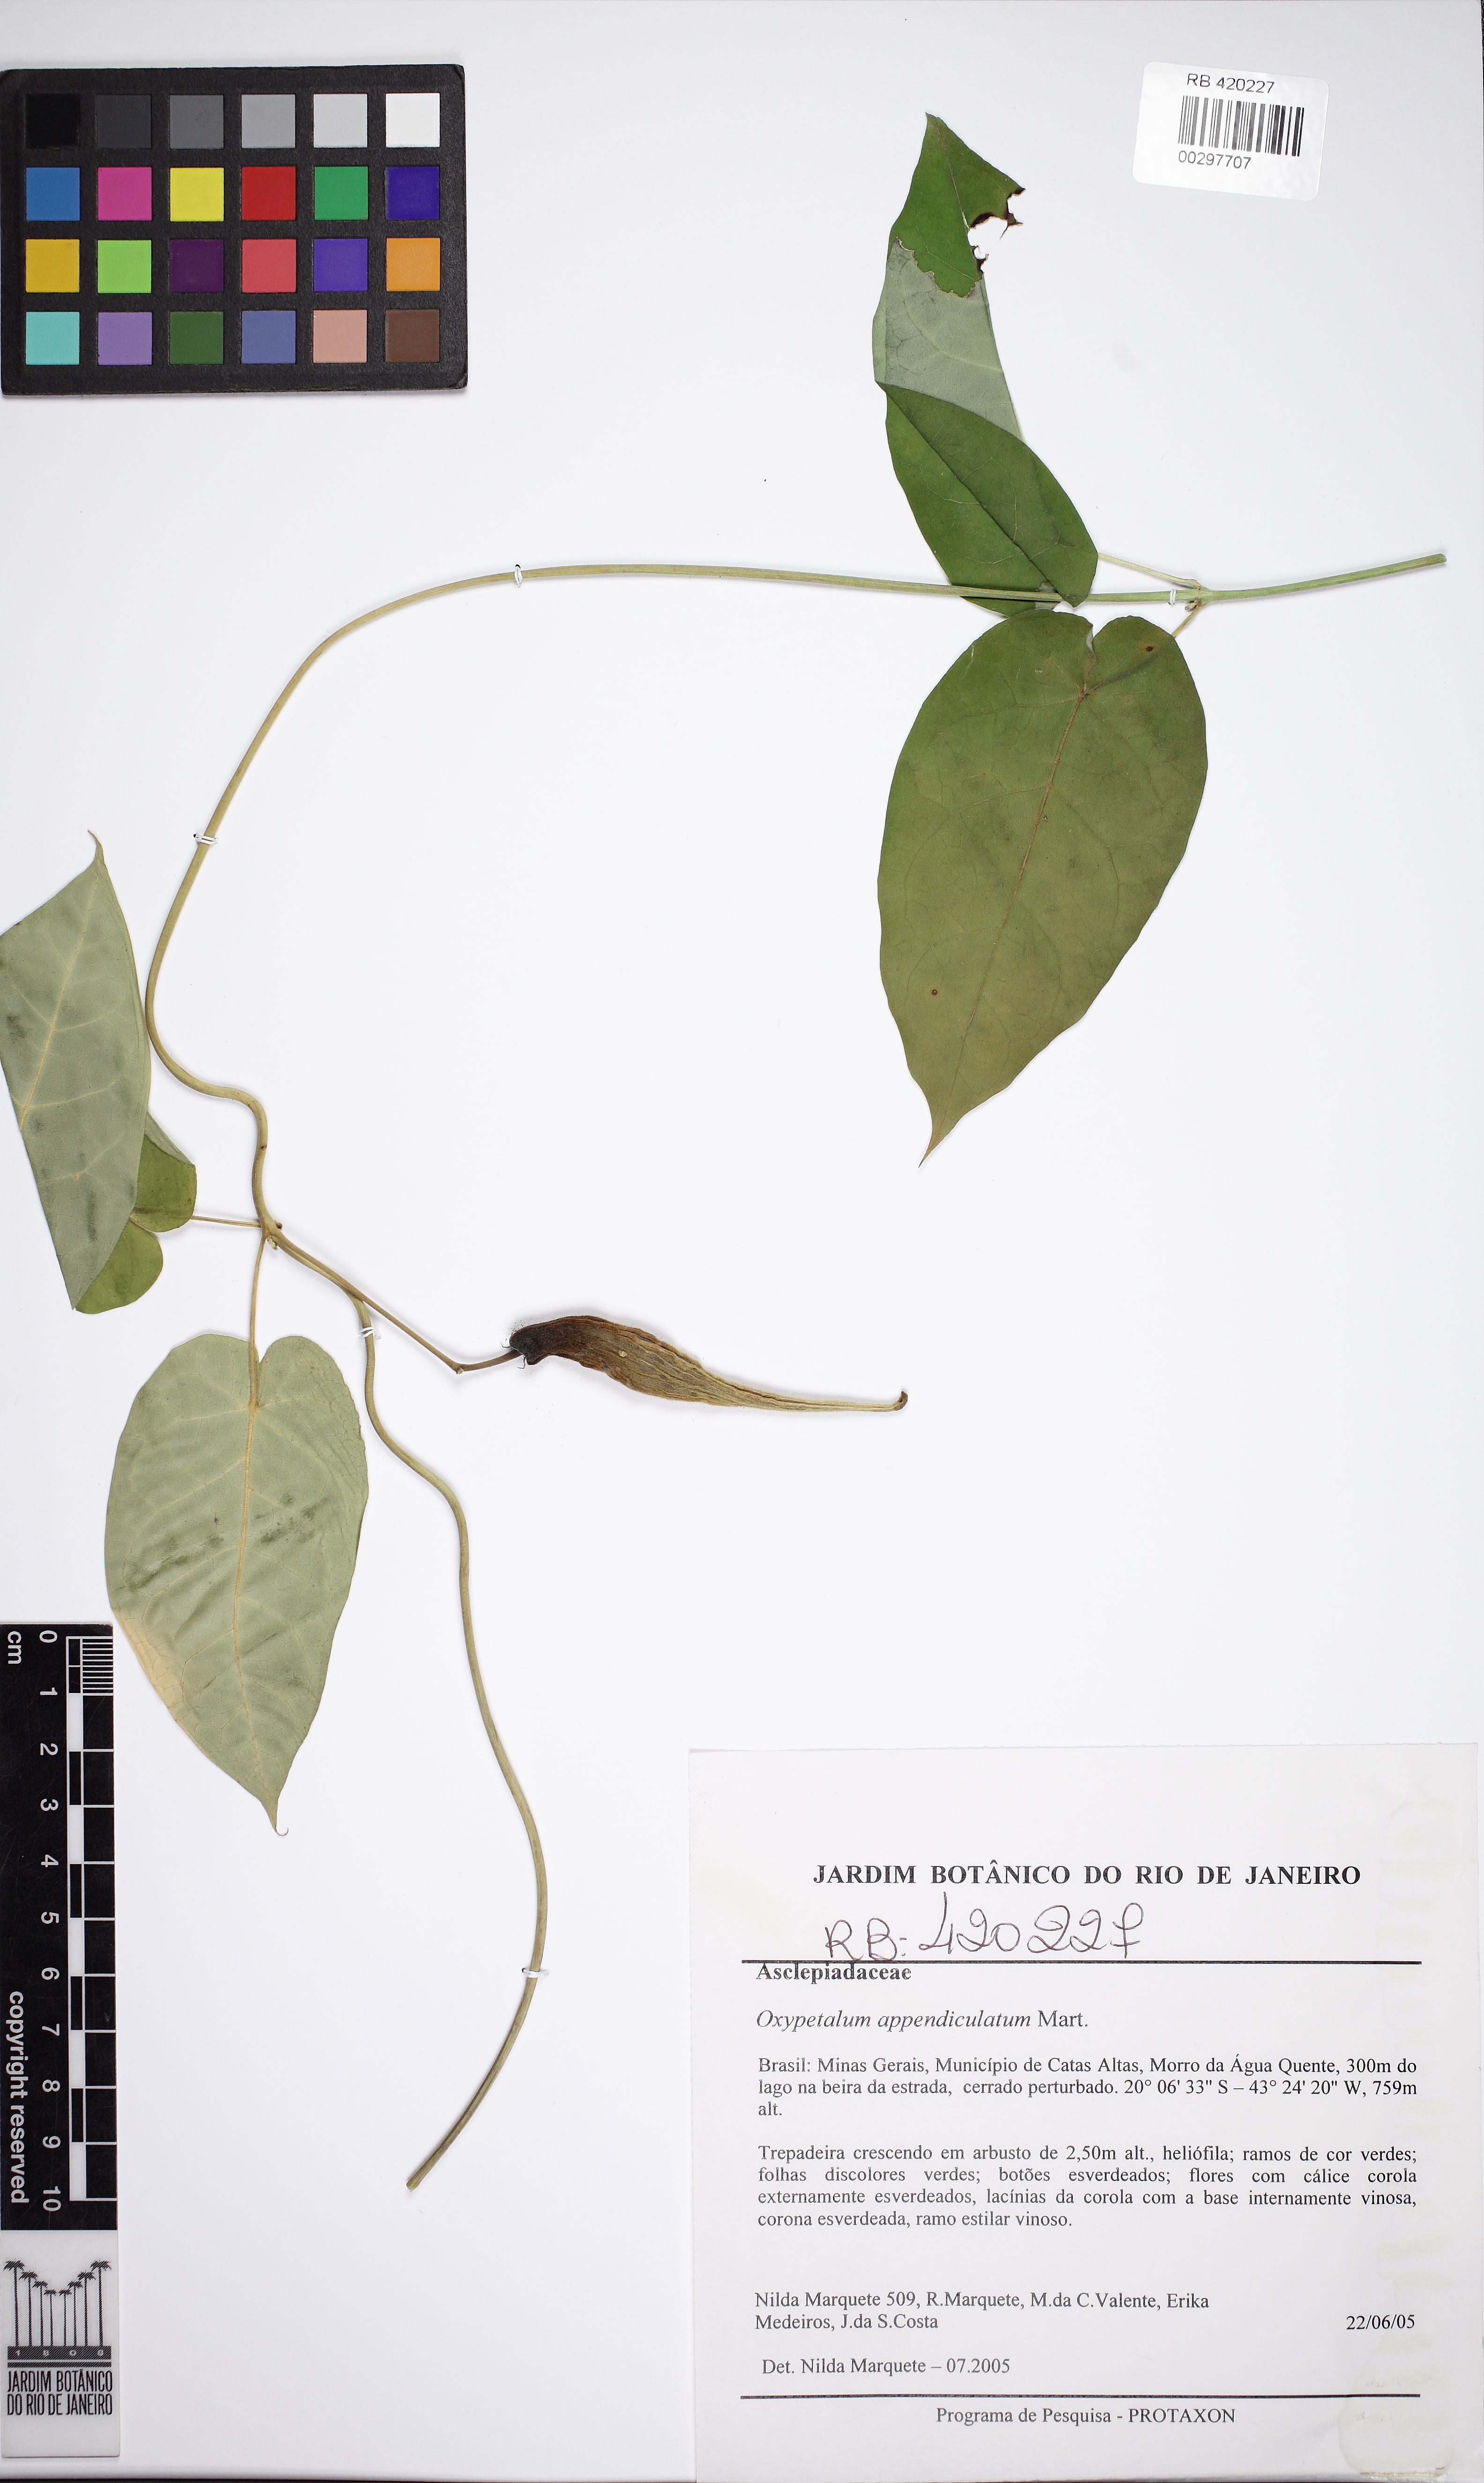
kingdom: Plantae
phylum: Tracheophyta
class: Magnoliopsida
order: Gentianales
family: Apocynaceae
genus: Oxypetalum
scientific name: Oxypetalum appendiculatum
